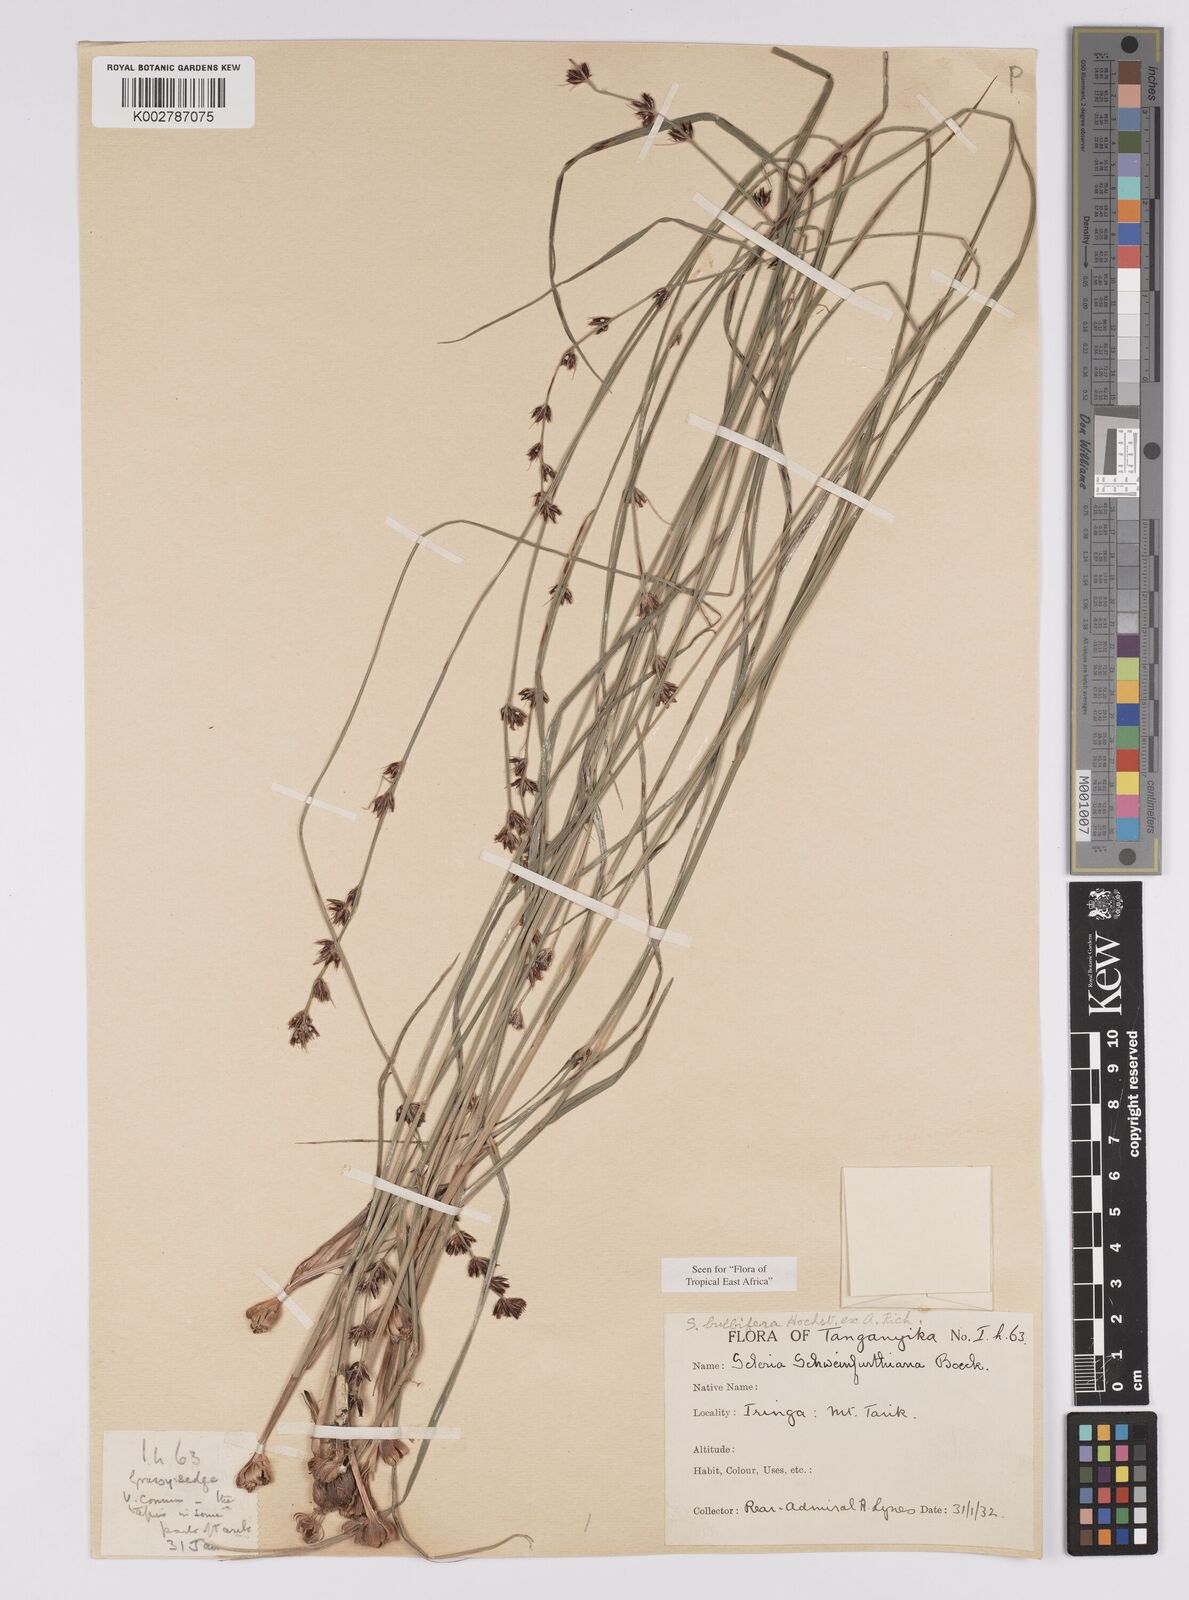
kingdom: Plantae
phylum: Tracheophyta
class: Liliopsida
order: Poales
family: Cyperaceae
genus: Scleria
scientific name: Scleria bulbifera
